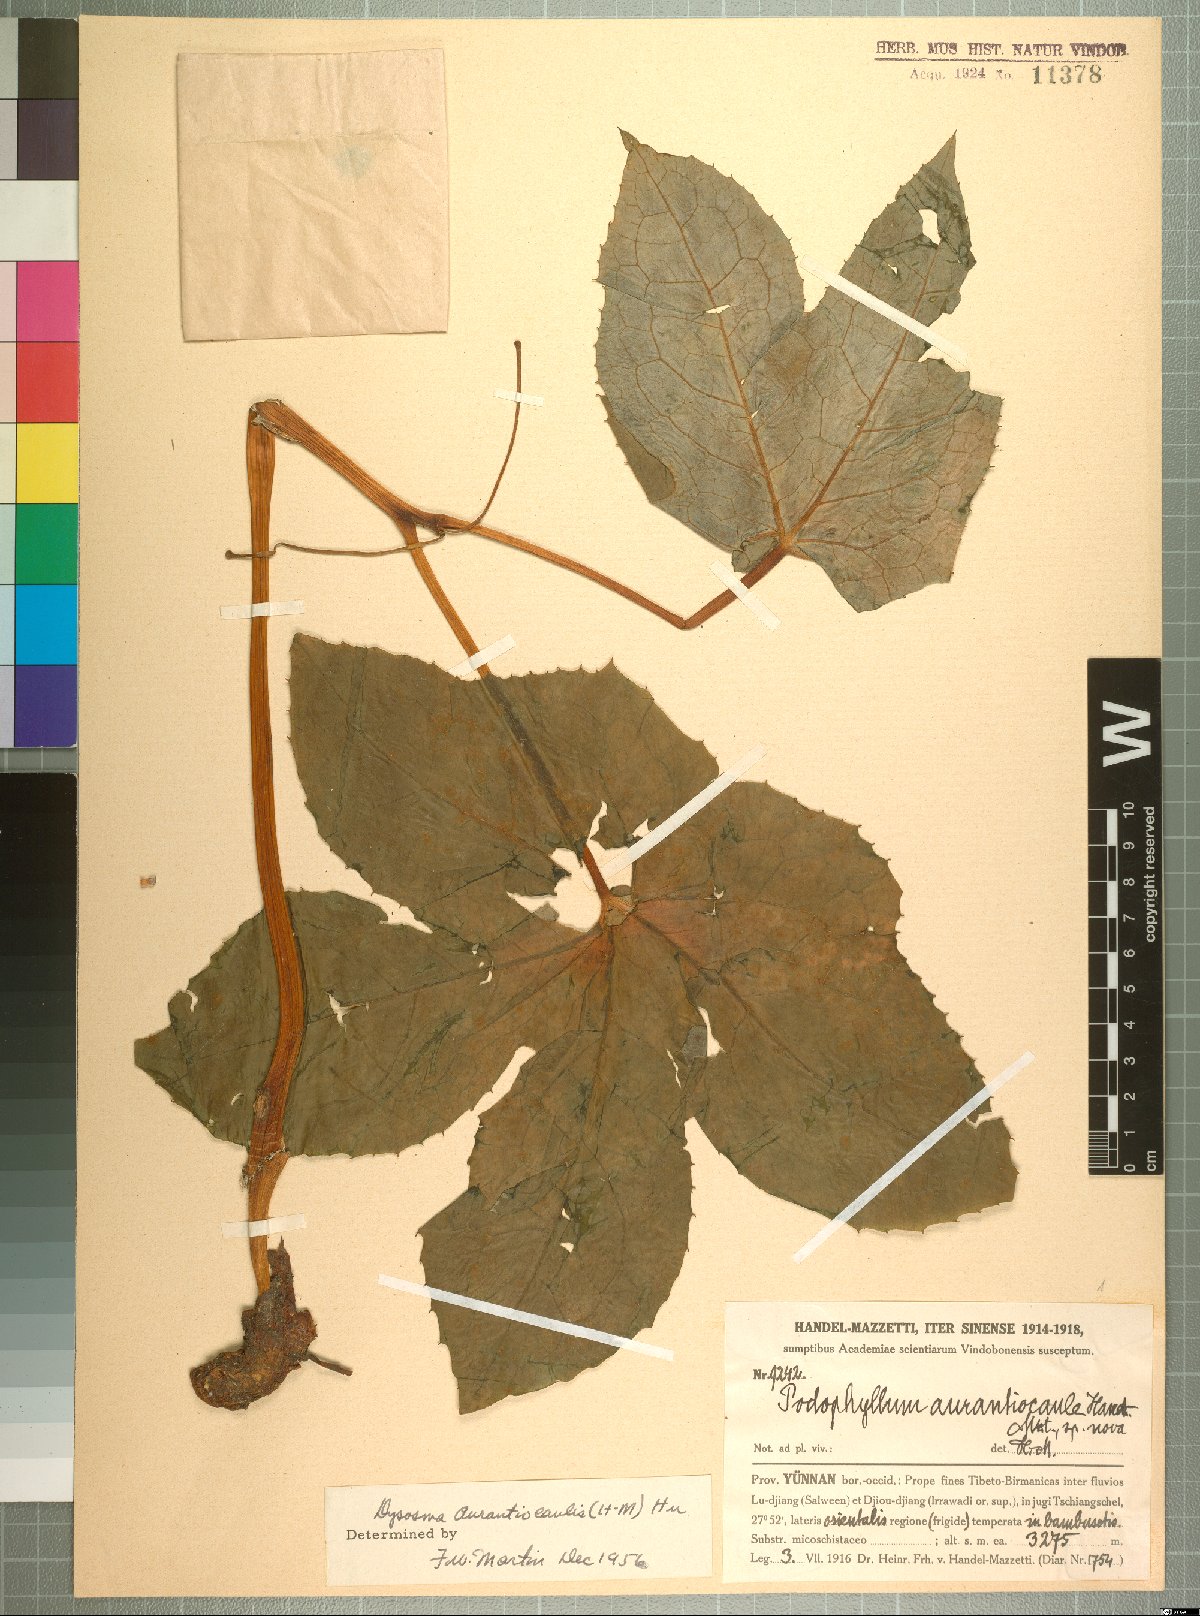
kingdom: Plantae
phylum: Tracheophyta
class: Magnoliopsida
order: Ranunculales
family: Berberidaceae
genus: Dysosma
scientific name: Dysosma aurantiocaulis
